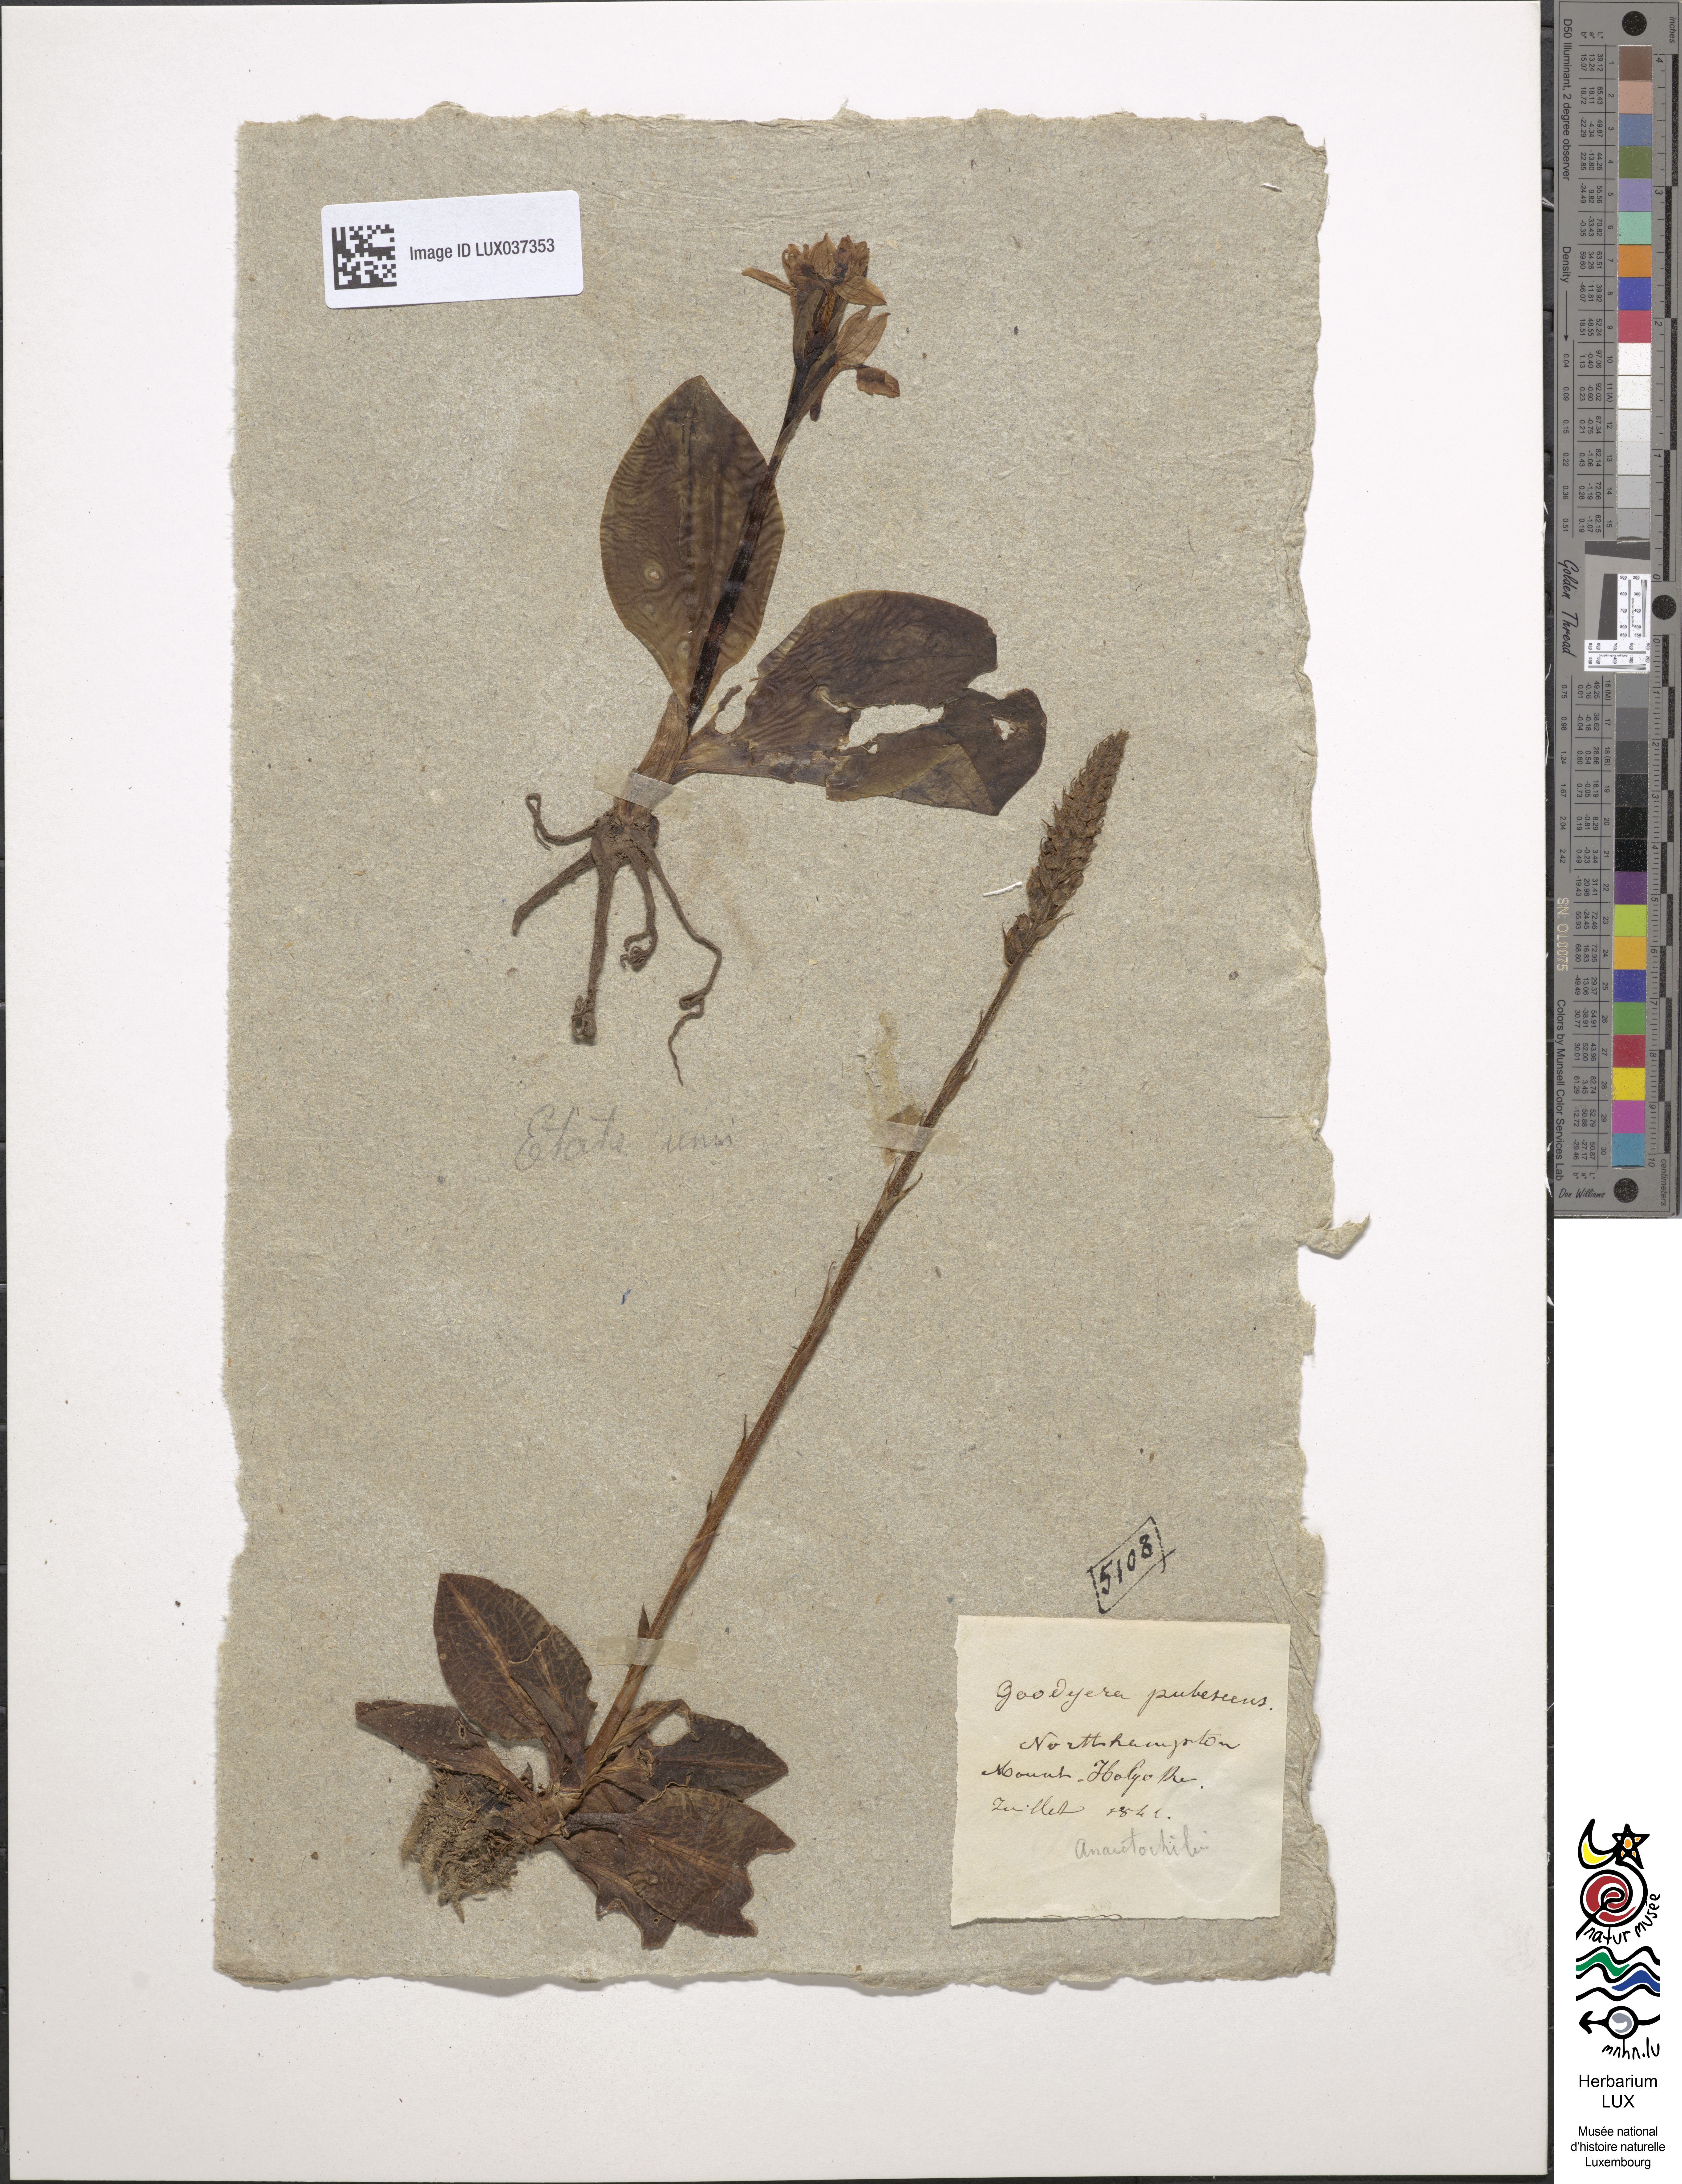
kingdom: Plantae
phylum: Tracheophyta
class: Liliopsida
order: Asparagales
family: Orchidaceae
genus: Goodyera
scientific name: Goodyera pubescens
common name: Downy rattlesnake-plantain
